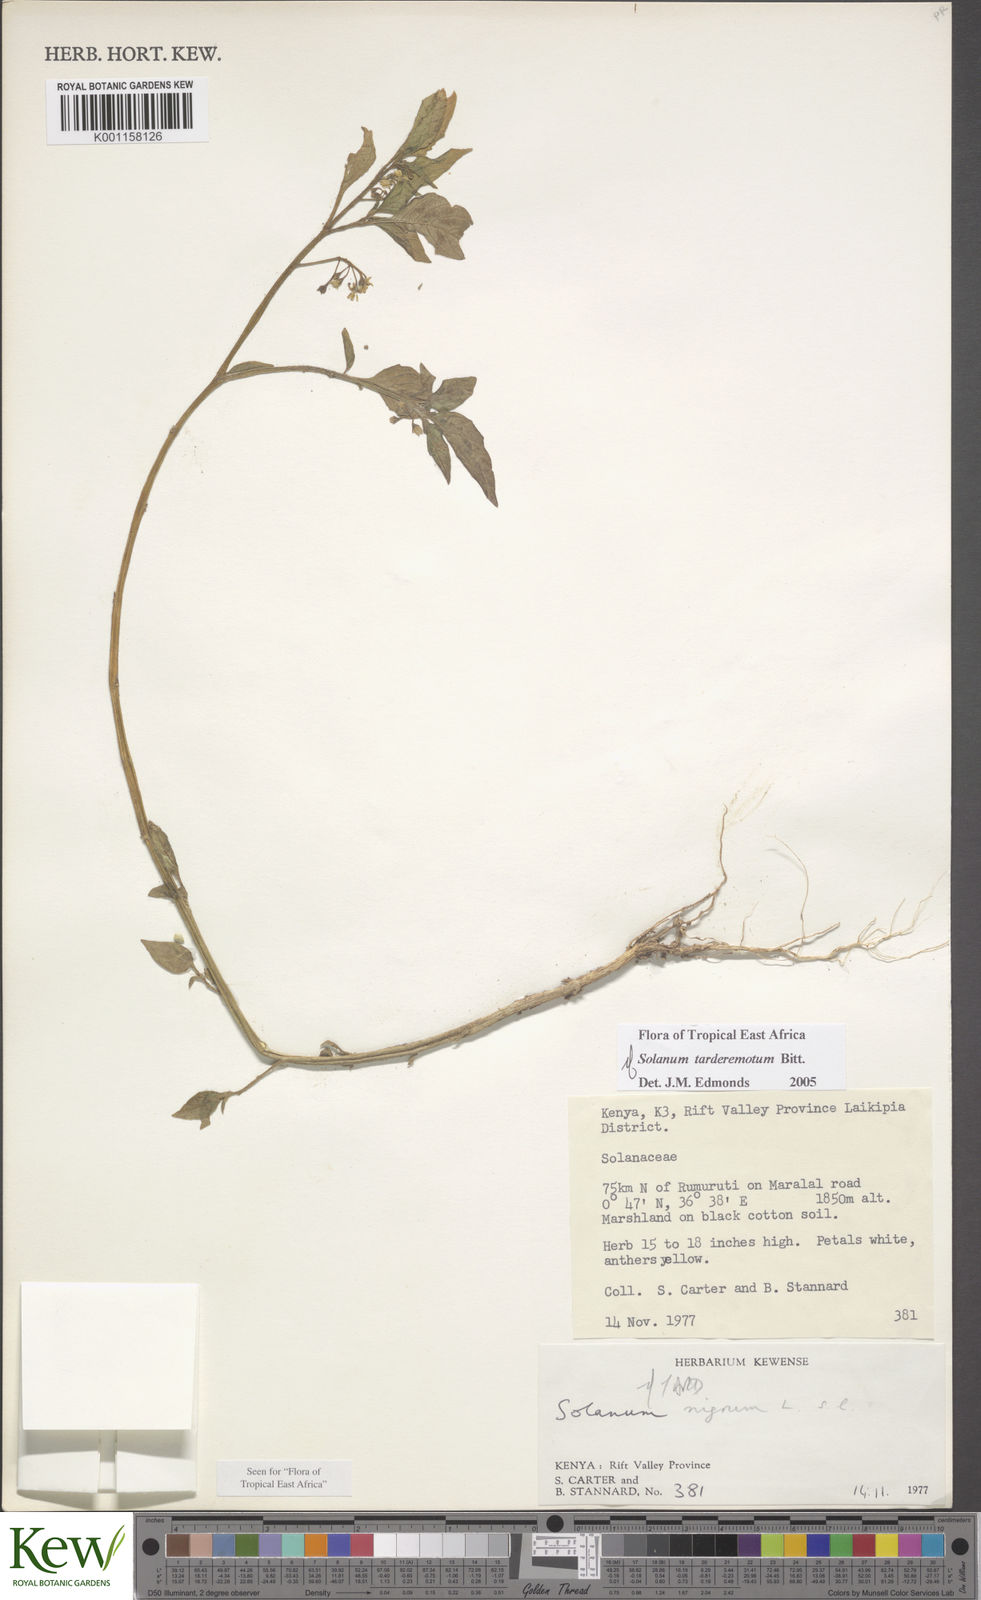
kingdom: Plantae
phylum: Tracheophyta
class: Magnoliopsida
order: Solanales
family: Solanaceae
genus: Solanum
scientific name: Solanum tarderemotum
